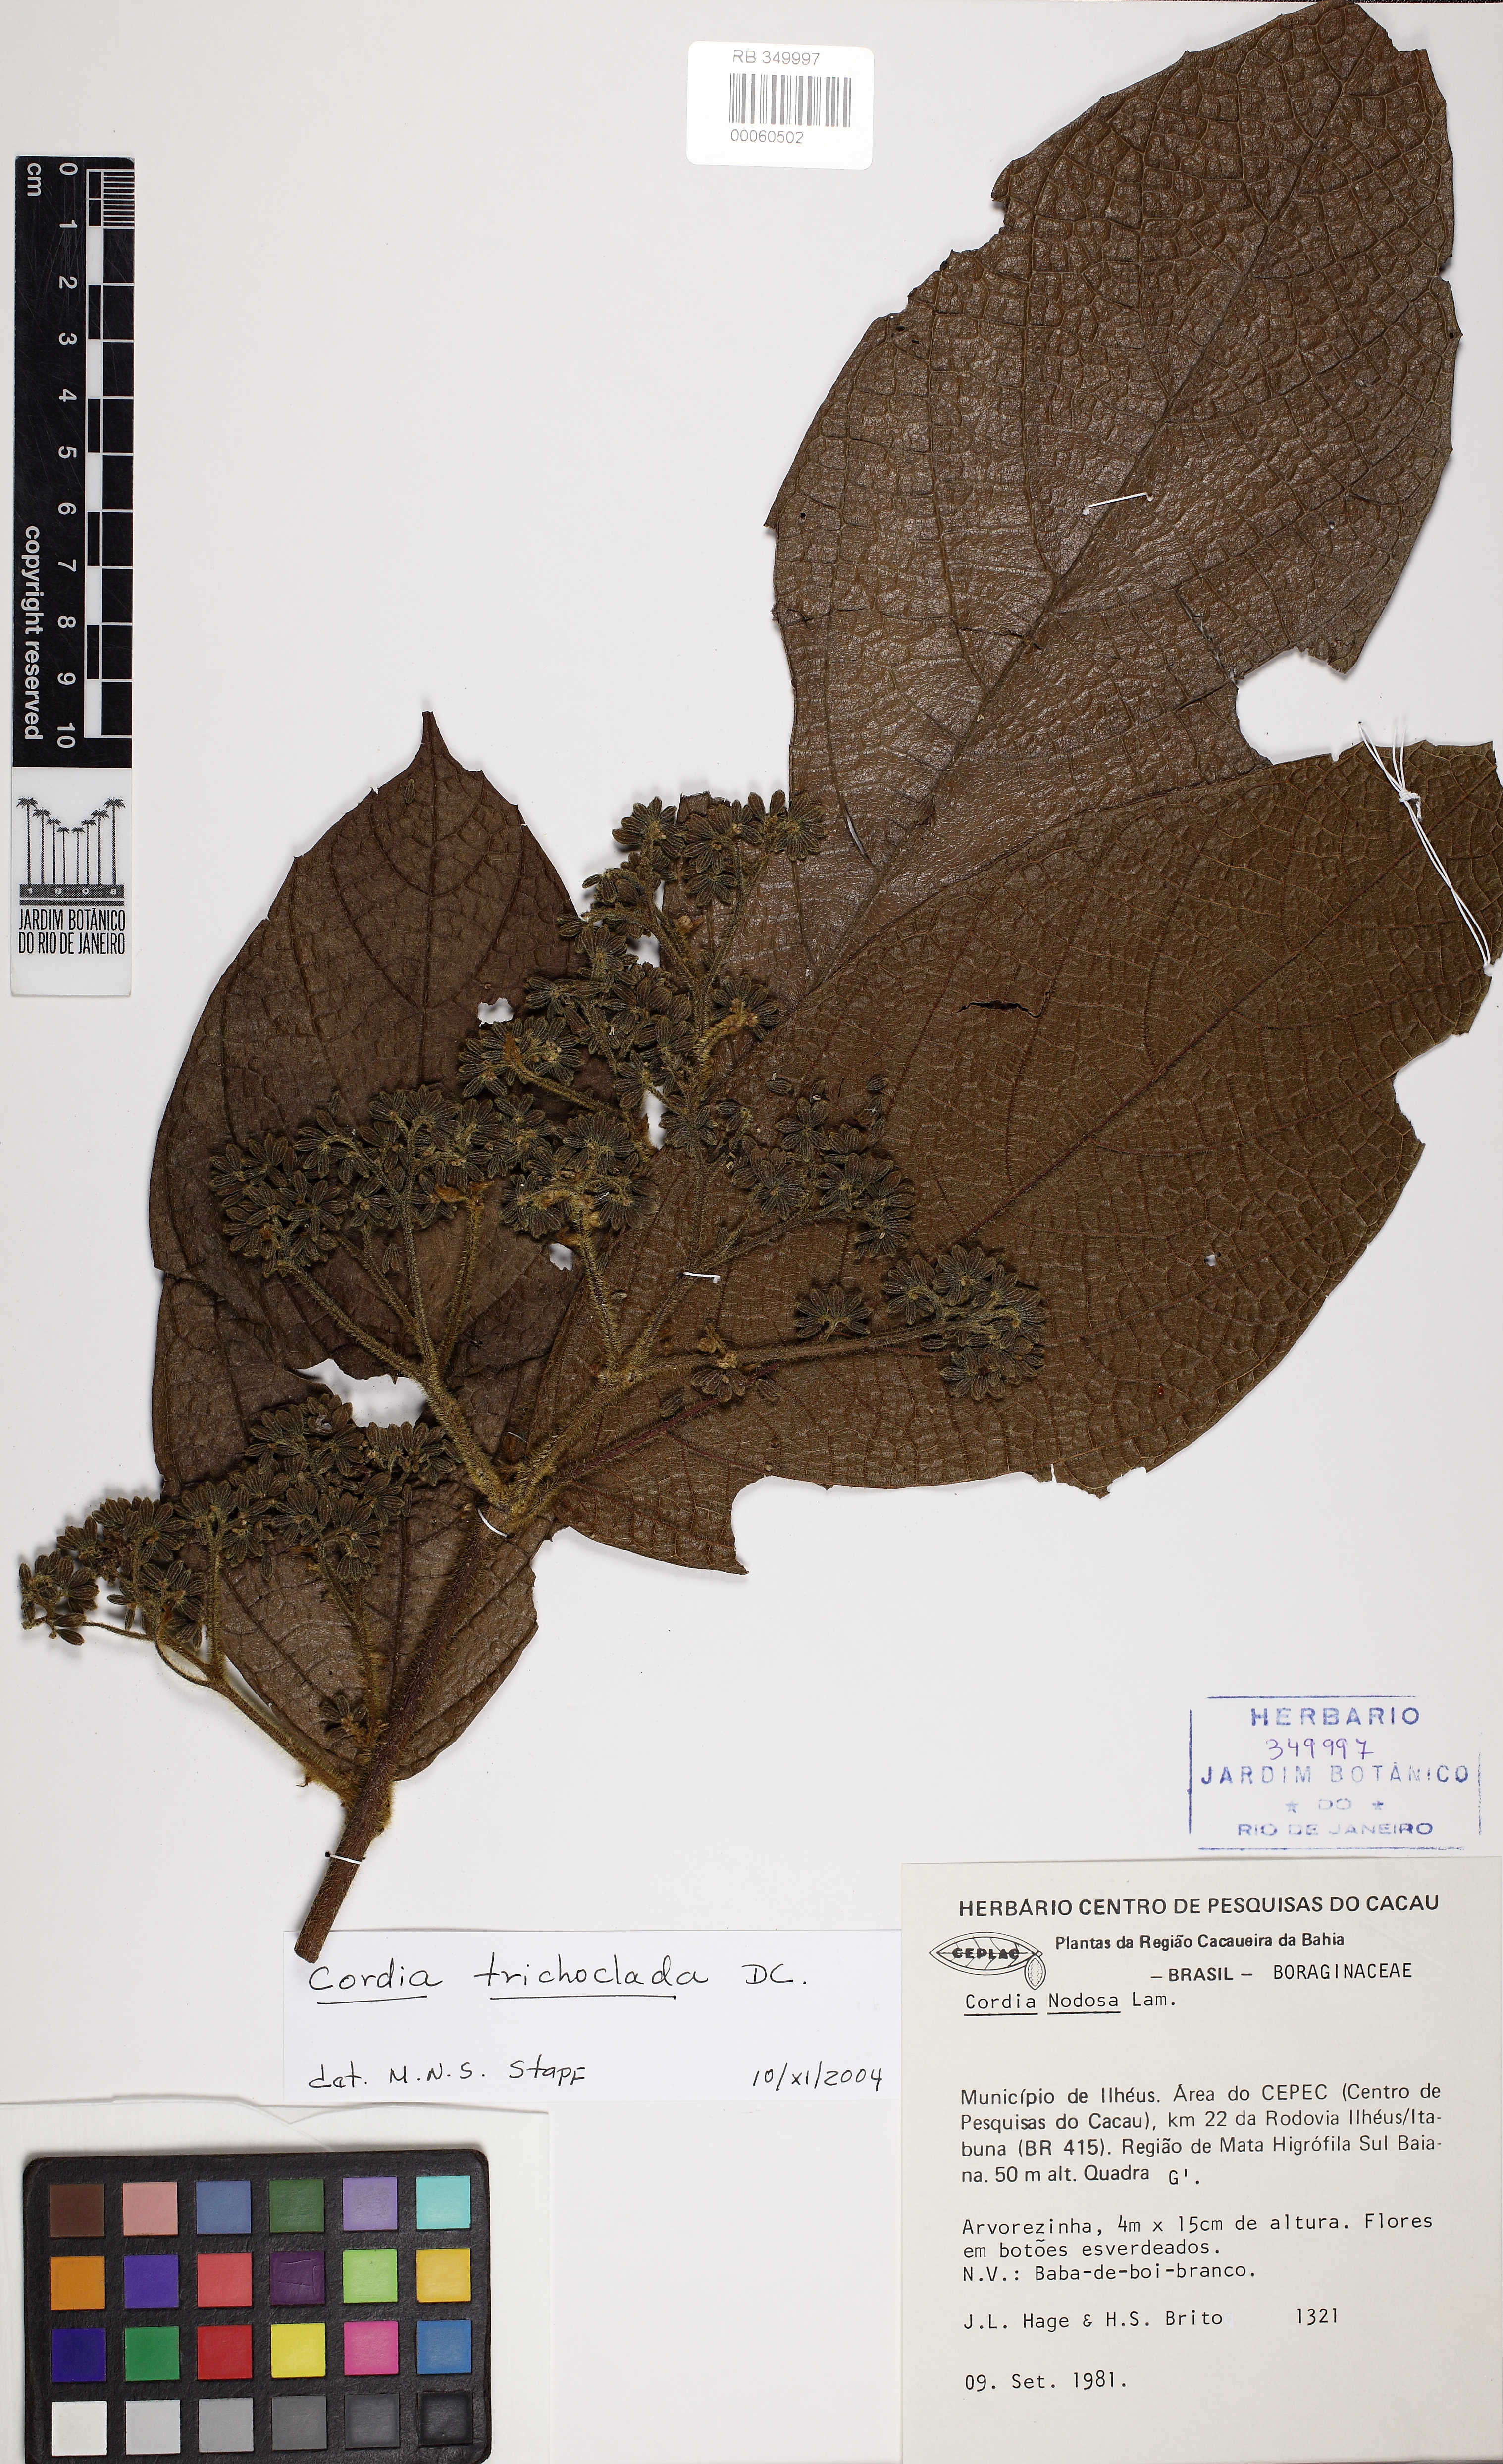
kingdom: Plantae
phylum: Tracheophyta
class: Magnoliopsida
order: Boraginales
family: Cordiaceae
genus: Cordia
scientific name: Cordia trichoclada
